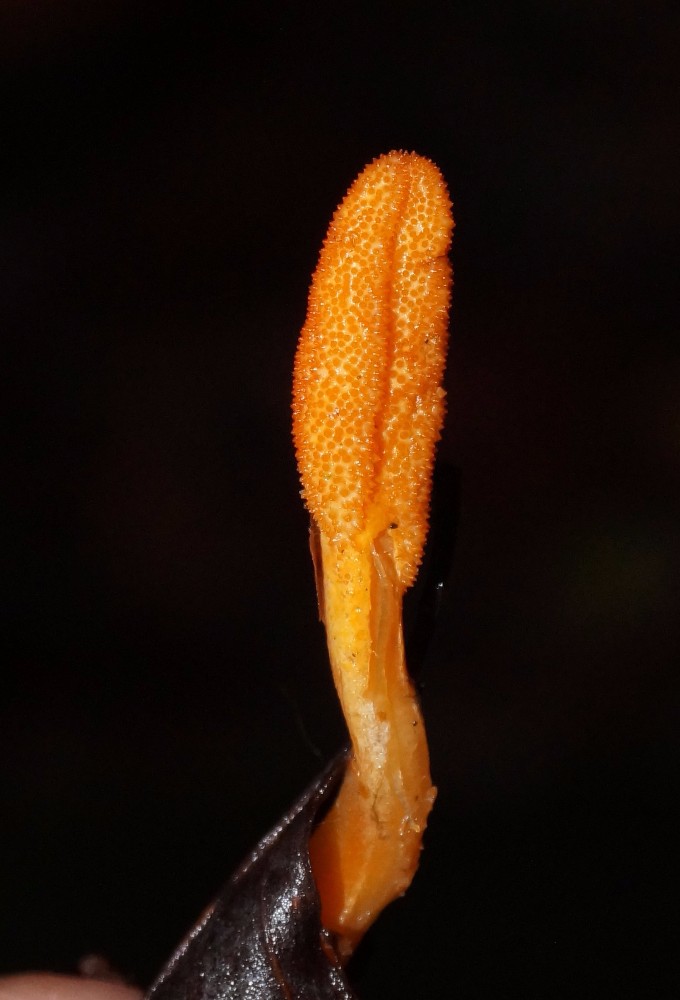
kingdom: Fungi
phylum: Ascomycota
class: Sordariomycetes
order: Hypocreales
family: Cordycipitaceae
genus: Cordyceps
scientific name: Cordyceps militaris
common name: puppe-snyltekølle
